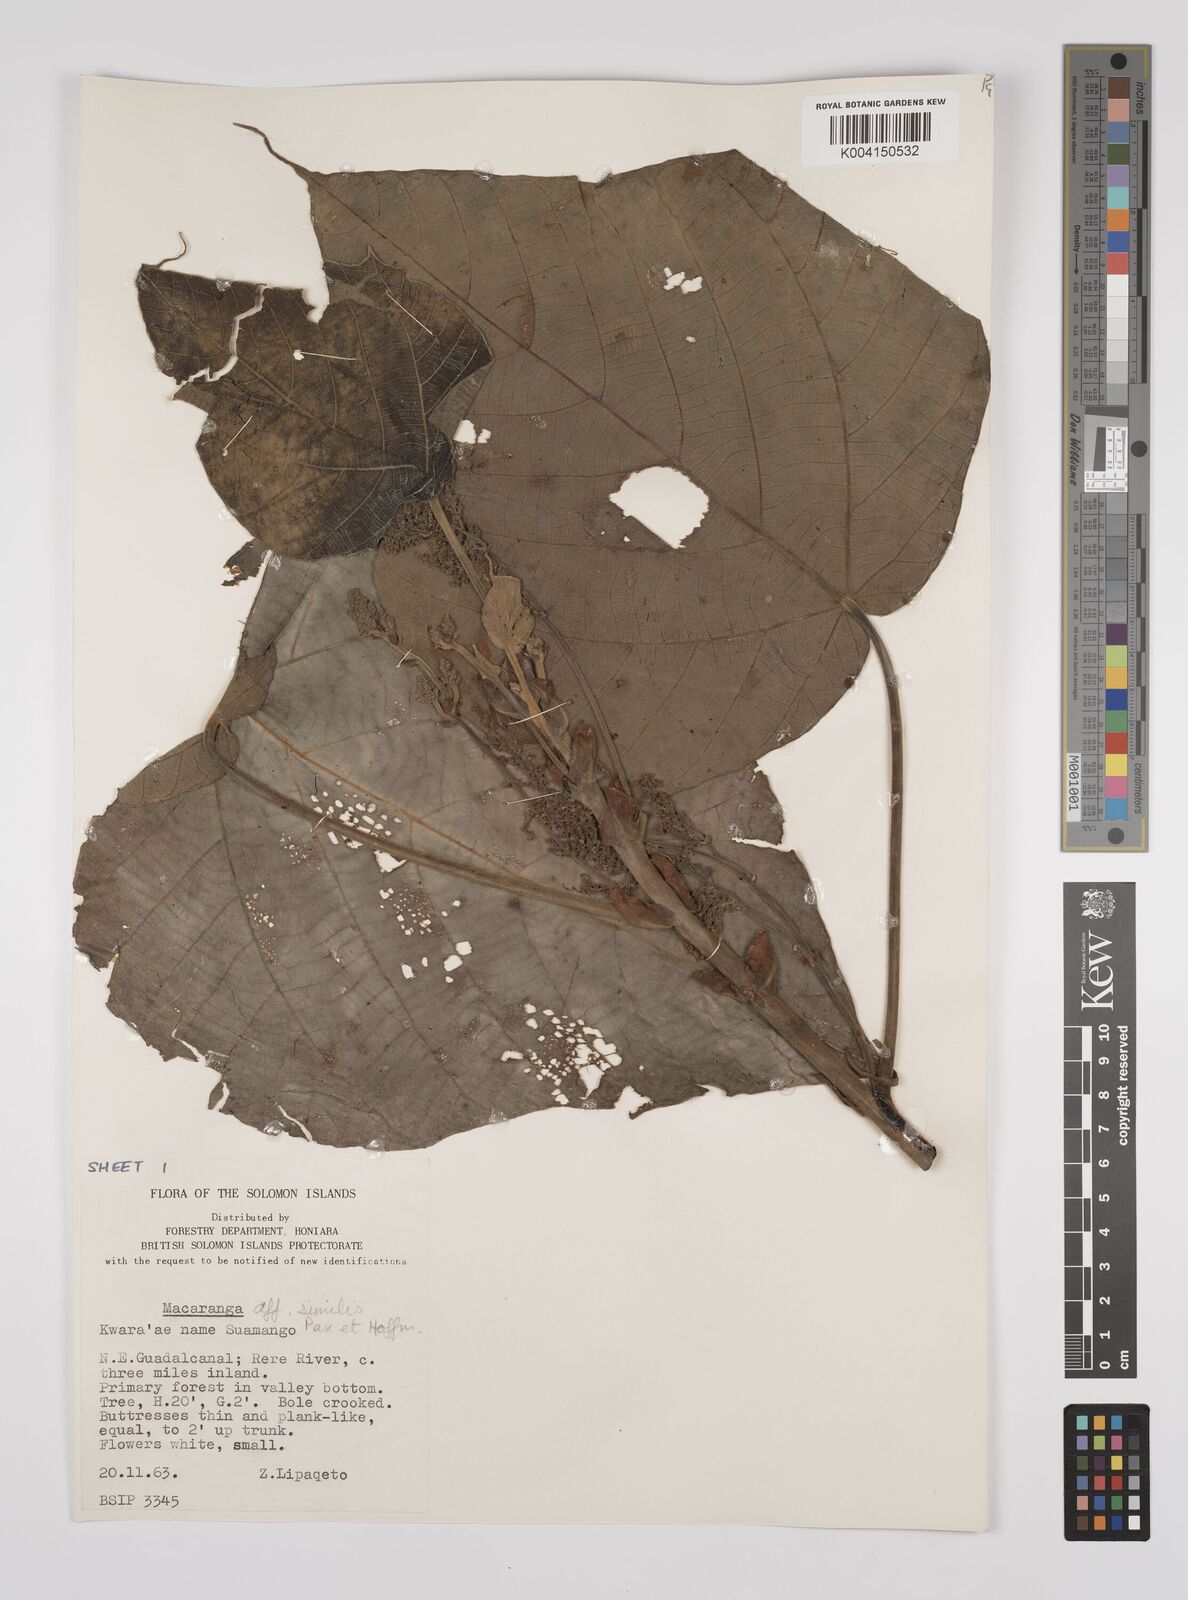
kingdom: Plantae
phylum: Tracheophyta
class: Magnoliopsida
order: Malpighiales
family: Euphorbiaceae
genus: Macaranga
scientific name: Macaranga similis
